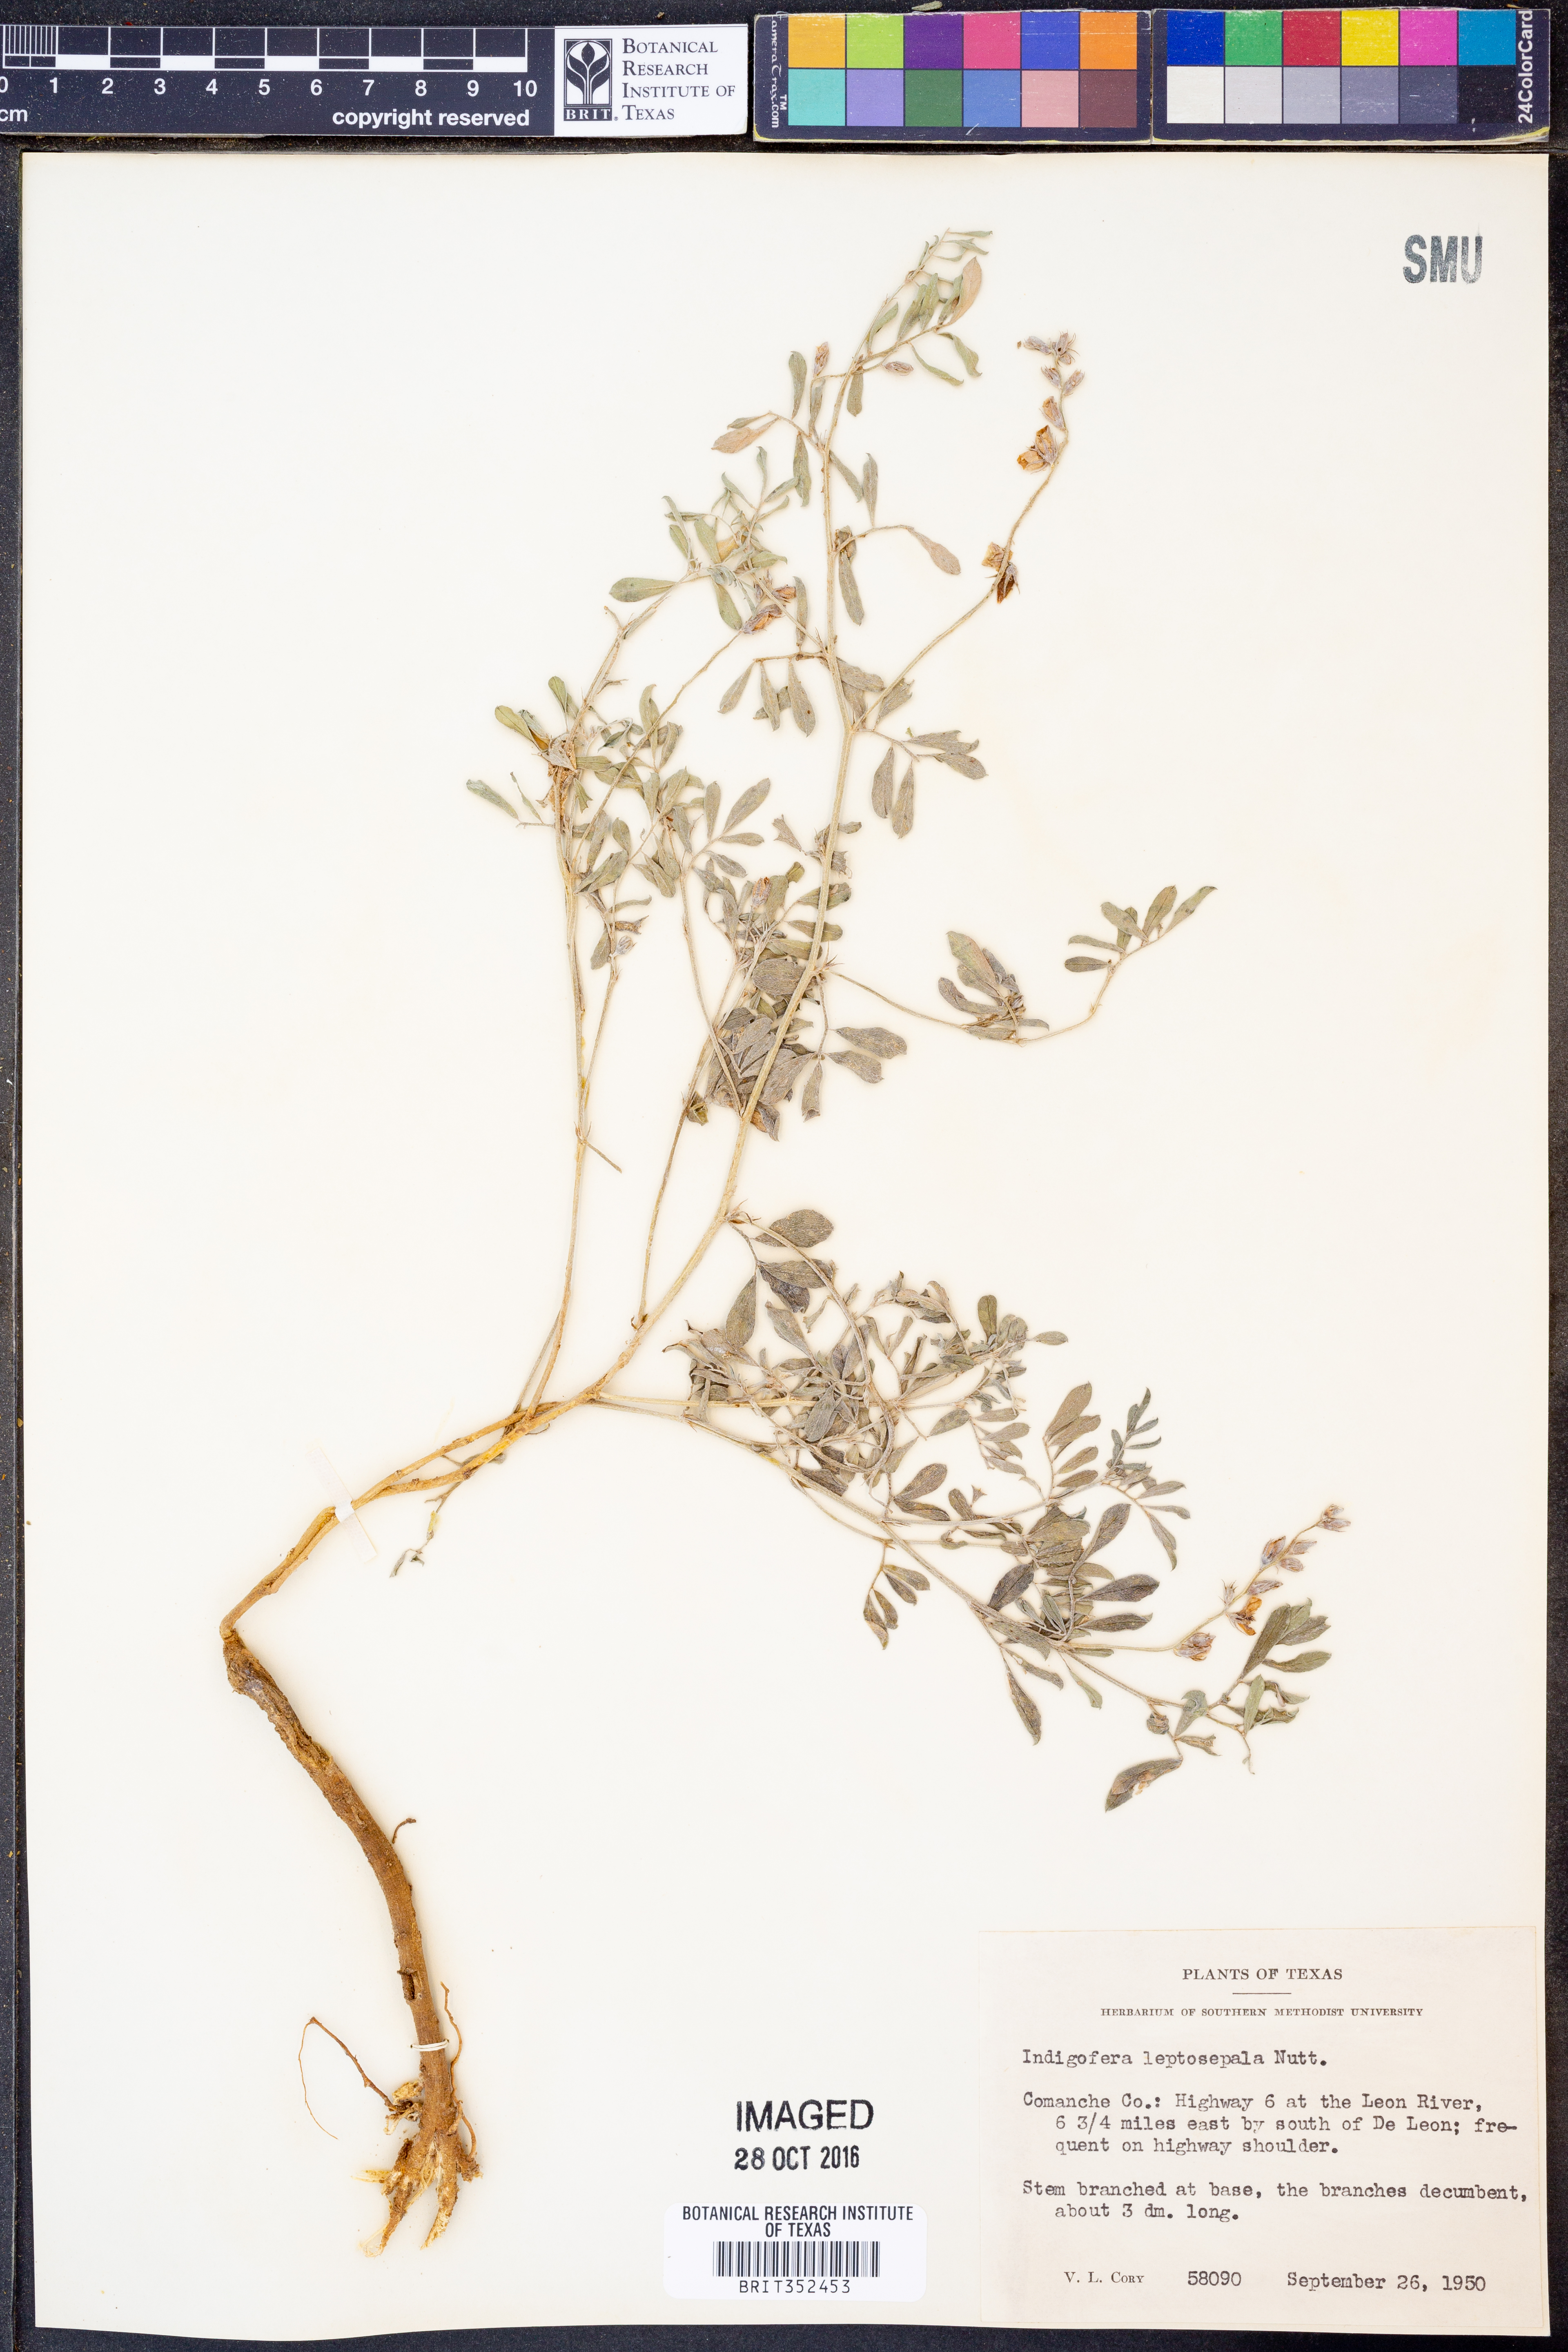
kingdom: Plantae
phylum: Tracheophyta
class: Magnoliopsida
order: Fabales
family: Fabaceae
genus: Indigofera
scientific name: Indigofera argutidens
